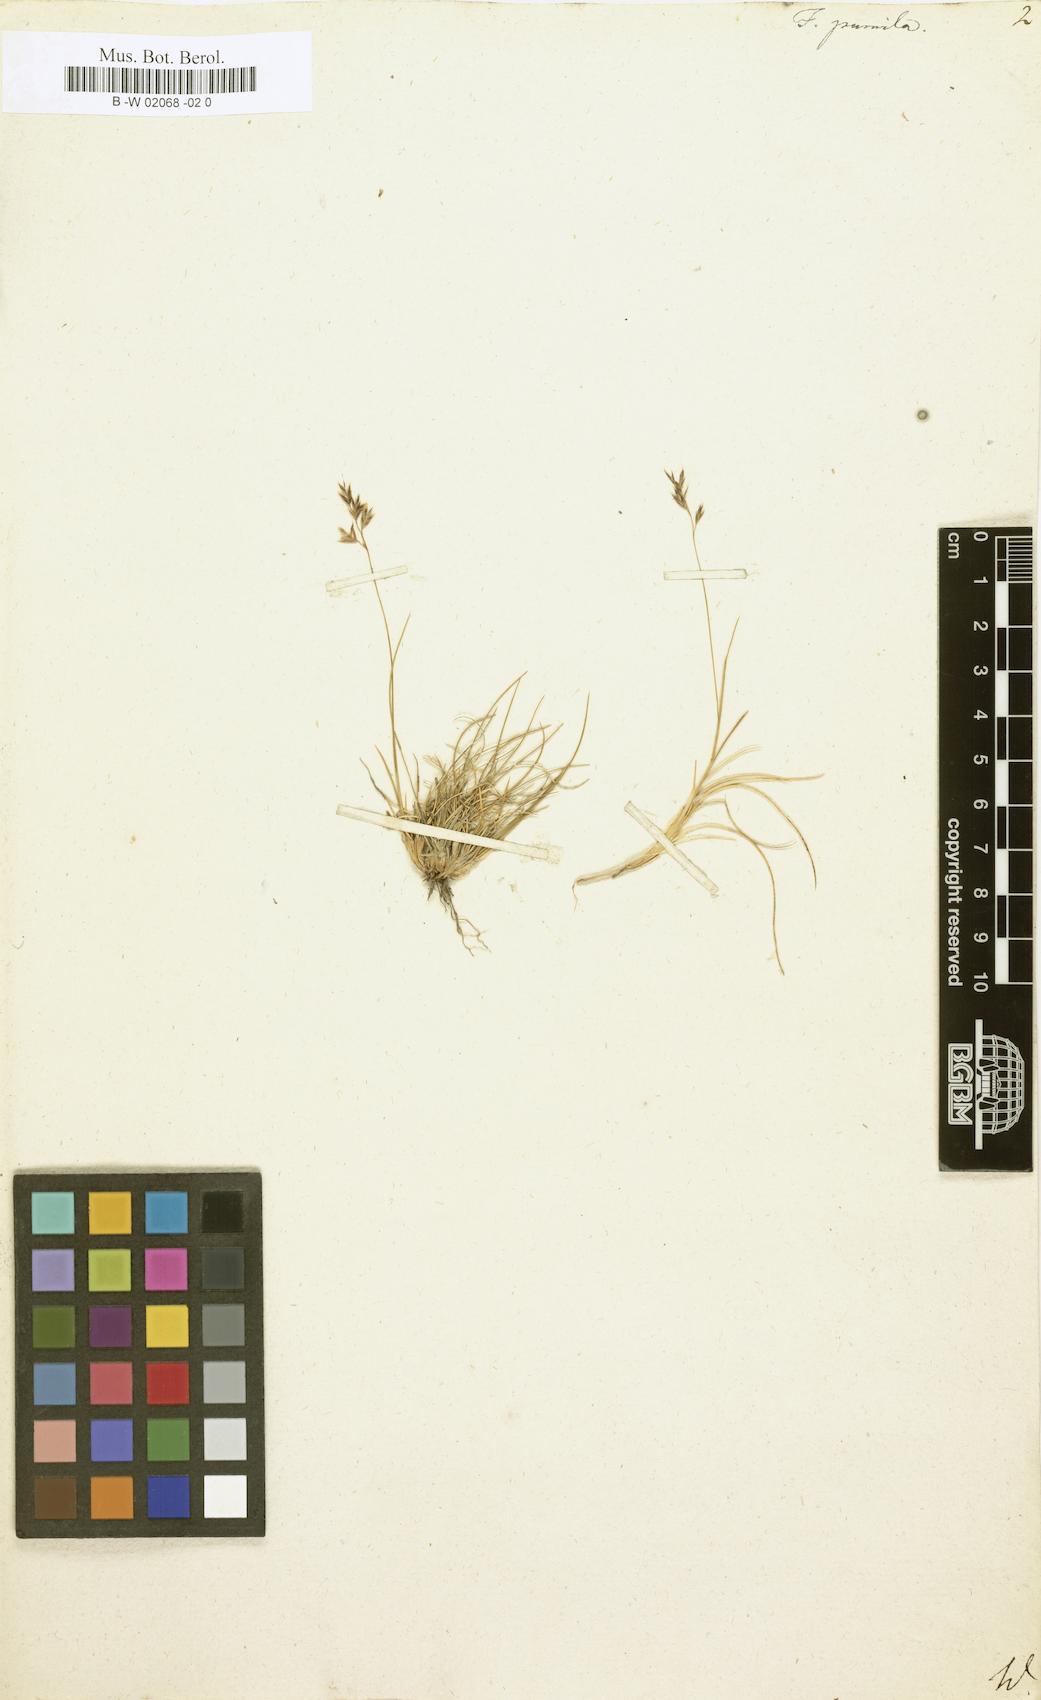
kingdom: Plantae
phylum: Tracheophyta
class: Liliopsida
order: Poales
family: Poaceae
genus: Festuca
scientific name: Festuca
